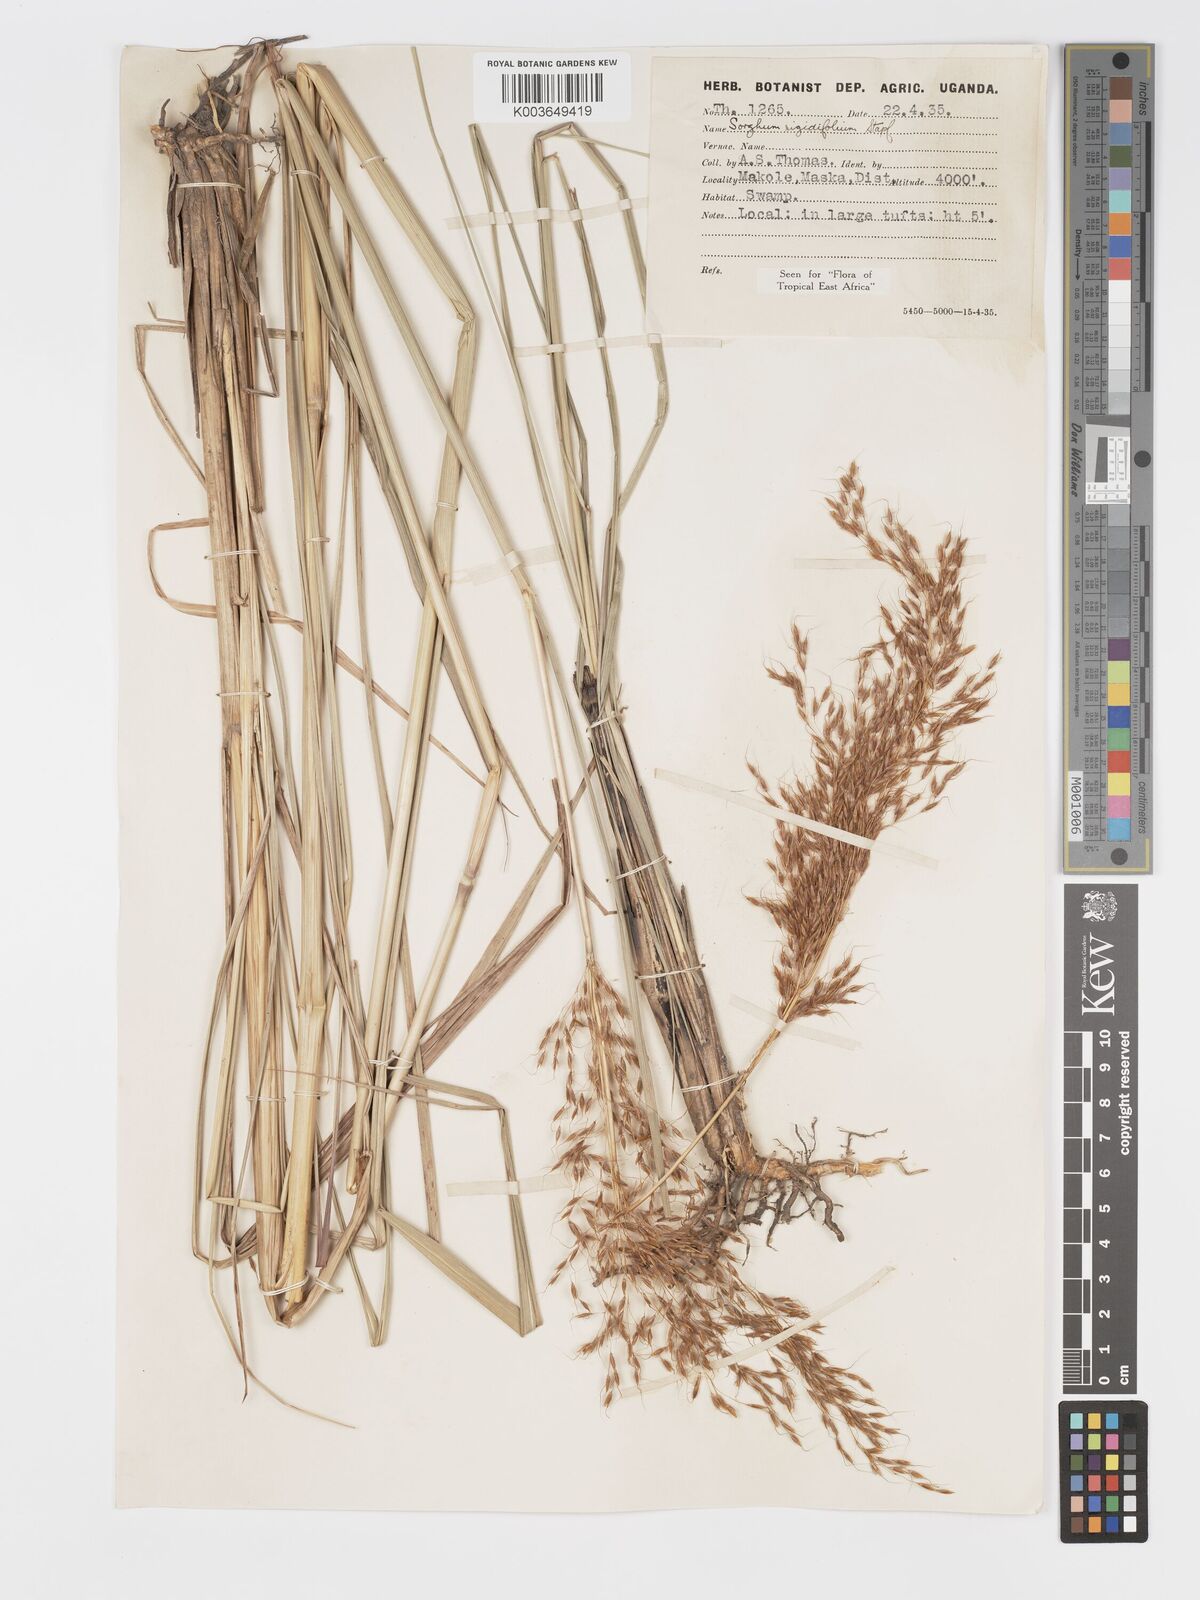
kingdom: Plantae
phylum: Tracheophyta
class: Liliopsida
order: Poales
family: Poaceae
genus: Sorghastrum
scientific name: Sorghastrum stipoides
